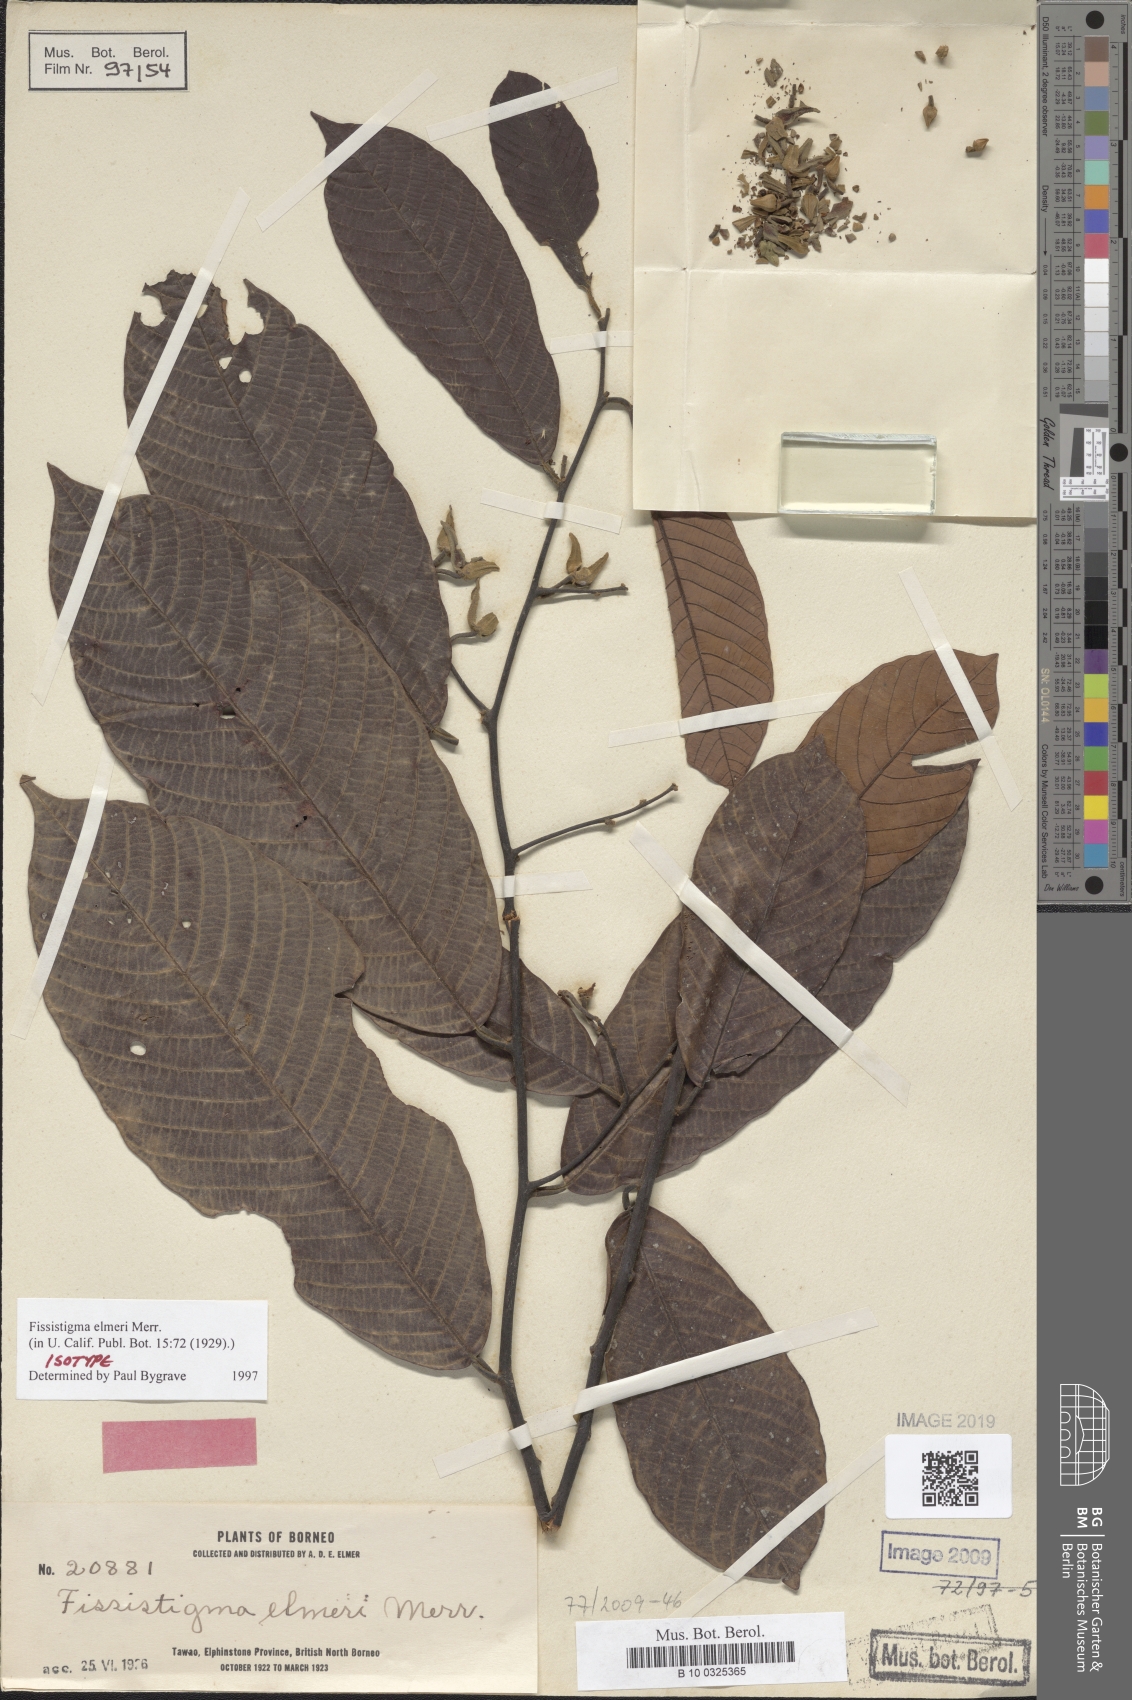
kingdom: Plantae
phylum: Tracheophyta
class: Magnoliopsida
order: Magnoliales
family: Annonaceae
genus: Fissistigma
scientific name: Fissistigma elmeri
